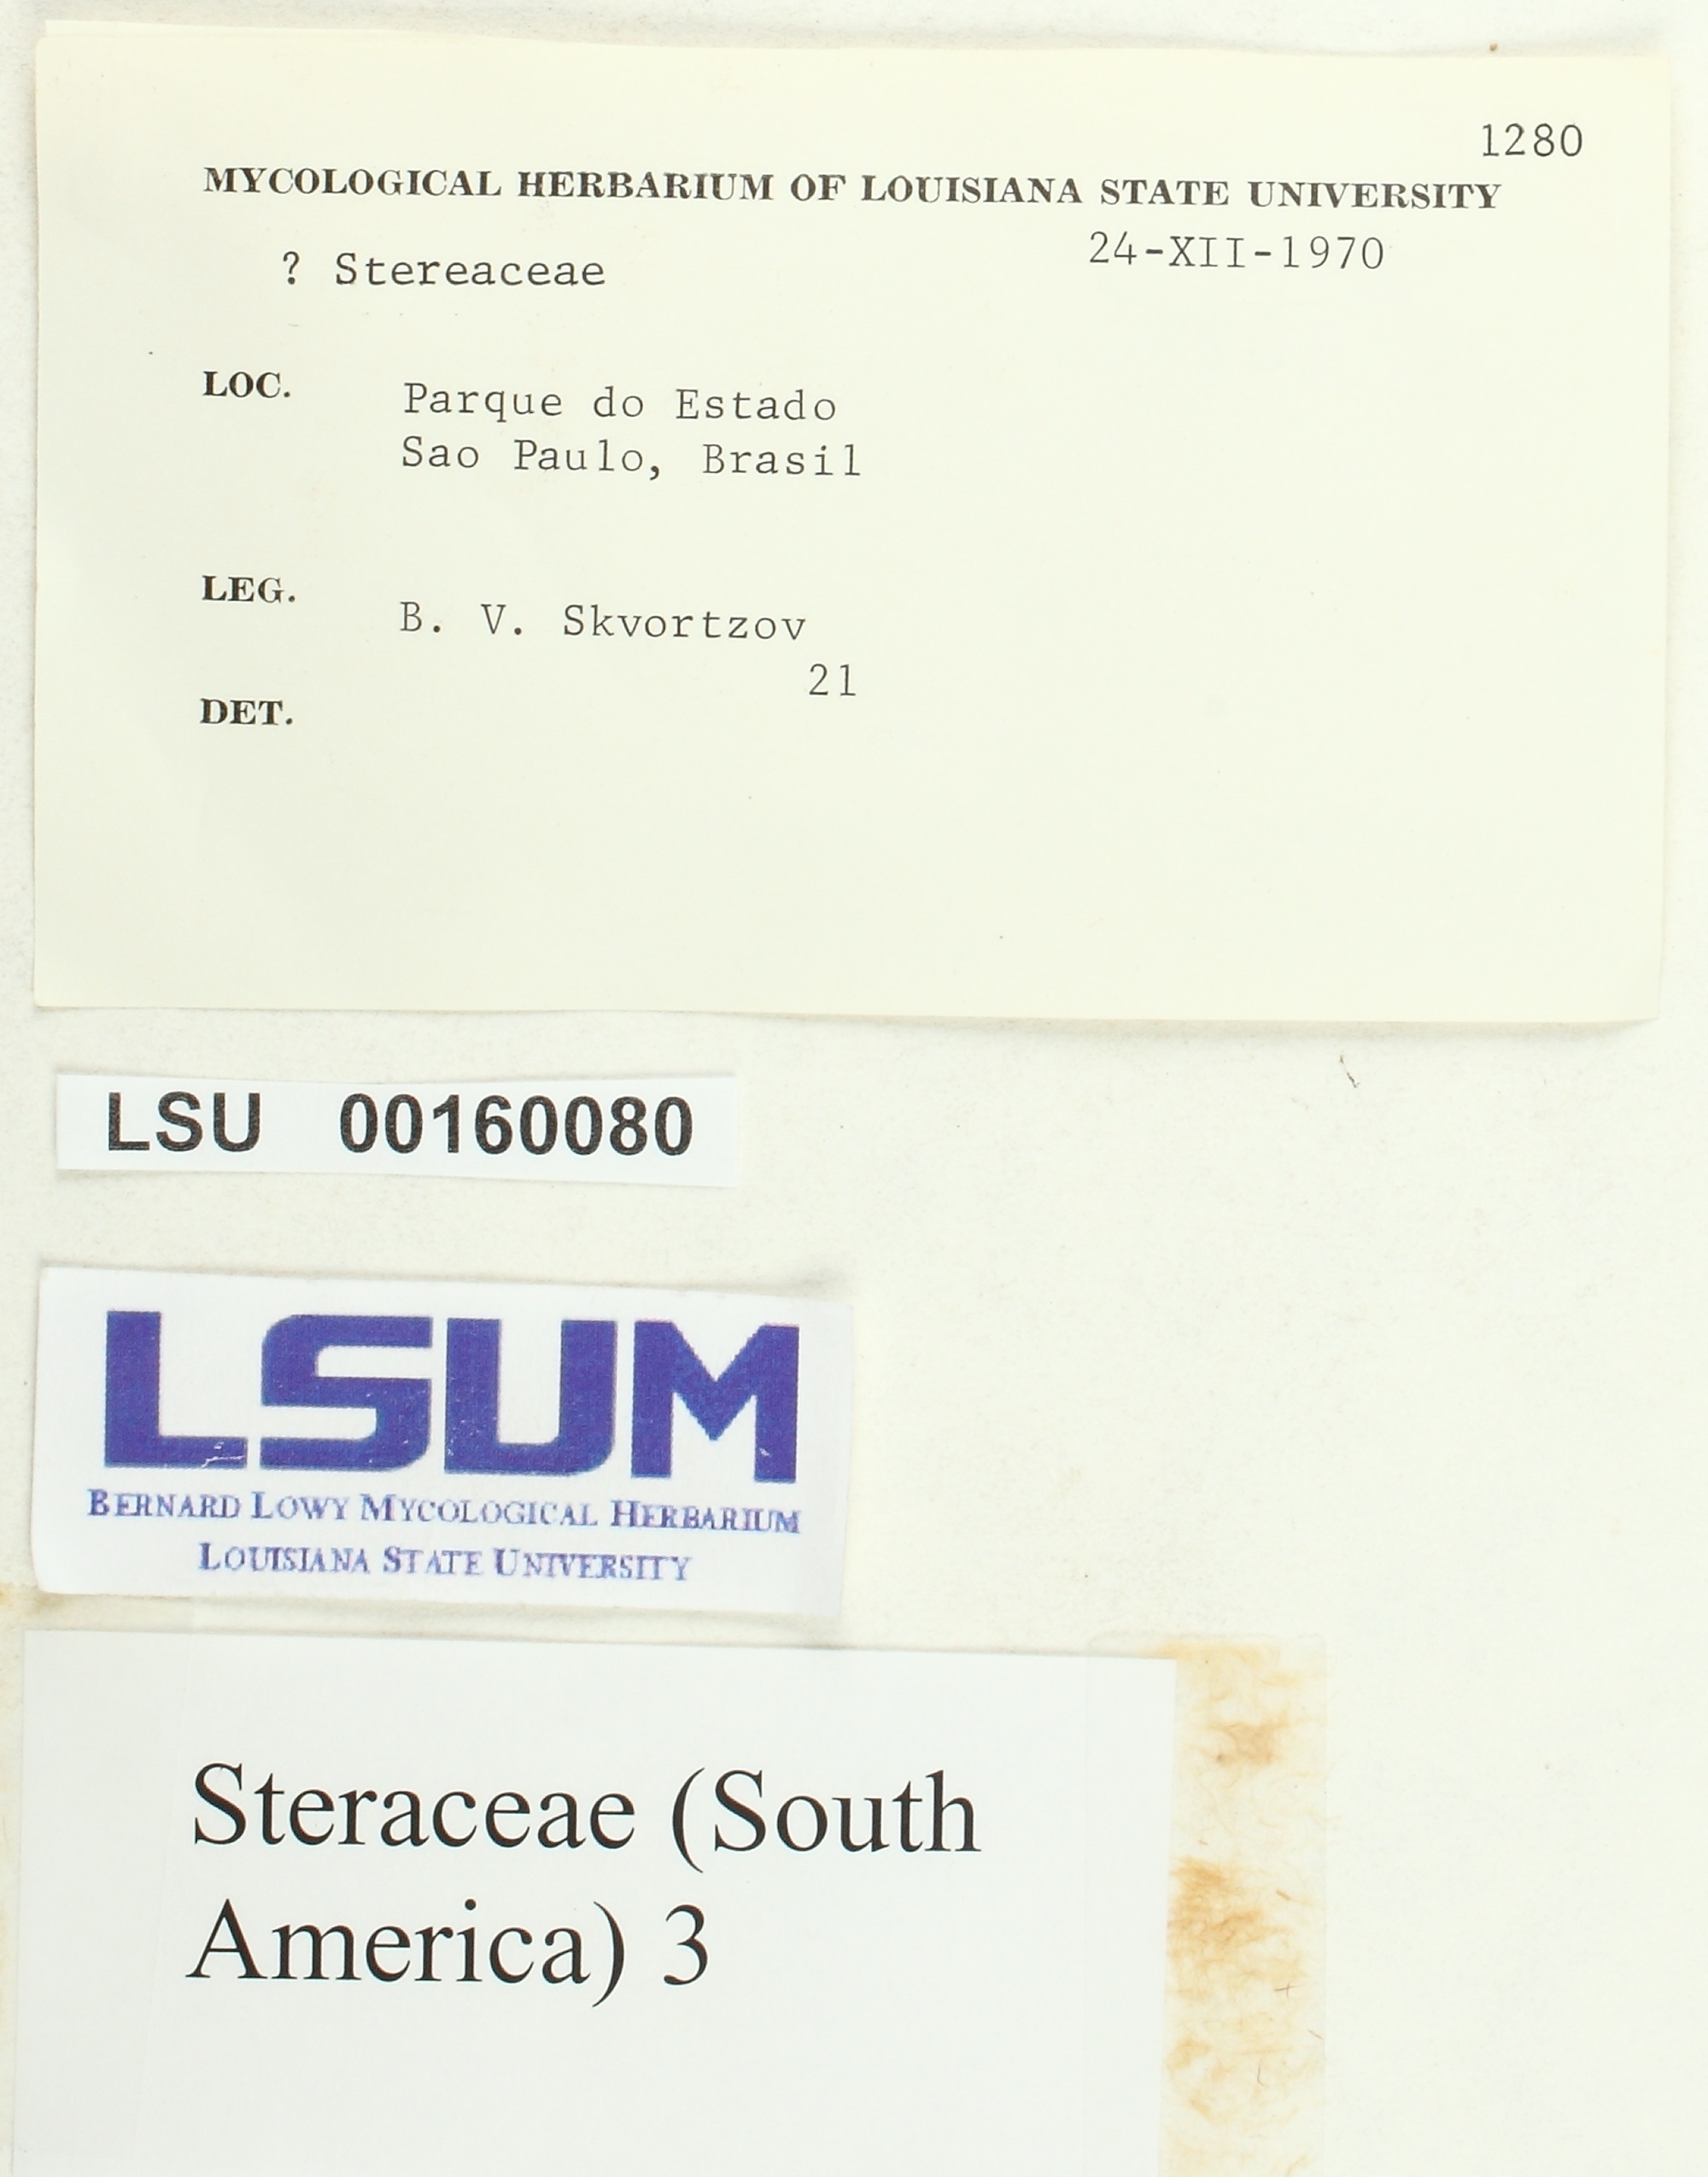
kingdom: Fungi
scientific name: Fungi
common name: Fungi
